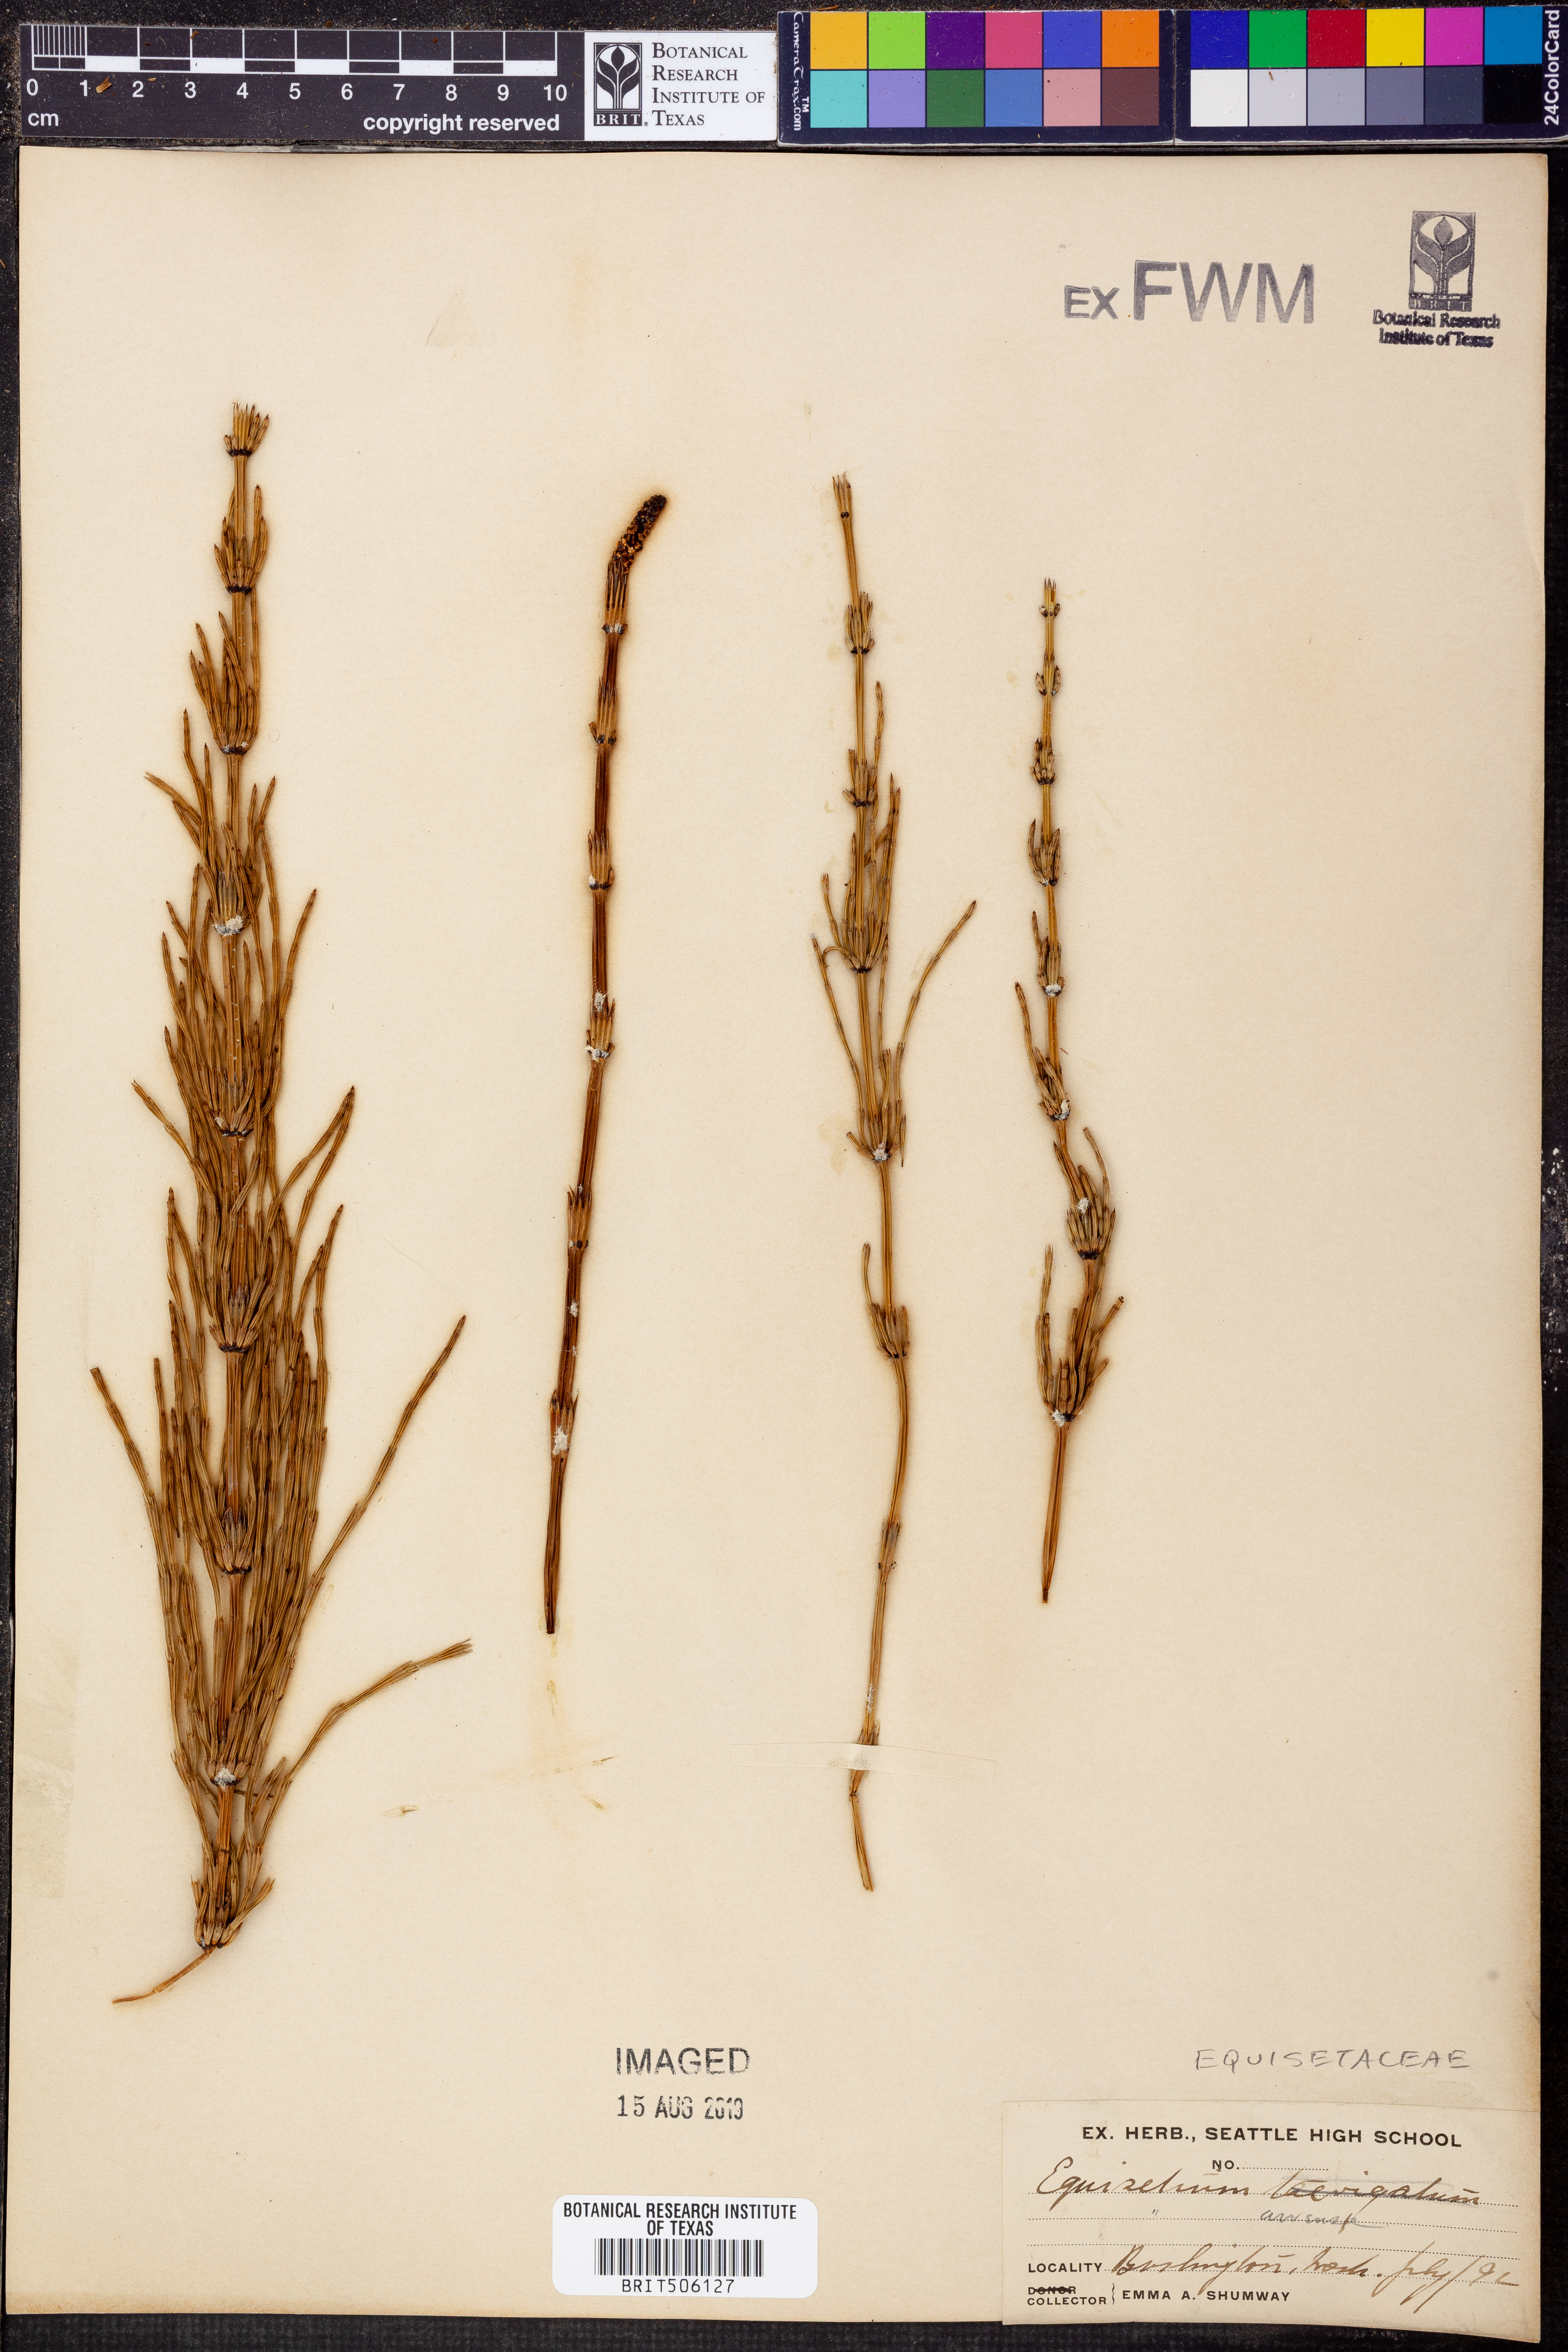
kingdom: Plantae
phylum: Tracheophyta
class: Polypodiopsida
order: Equisetales
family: Equisetaceae
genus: Equisetum
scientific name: Equisetum arvense
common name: Field horsetail
